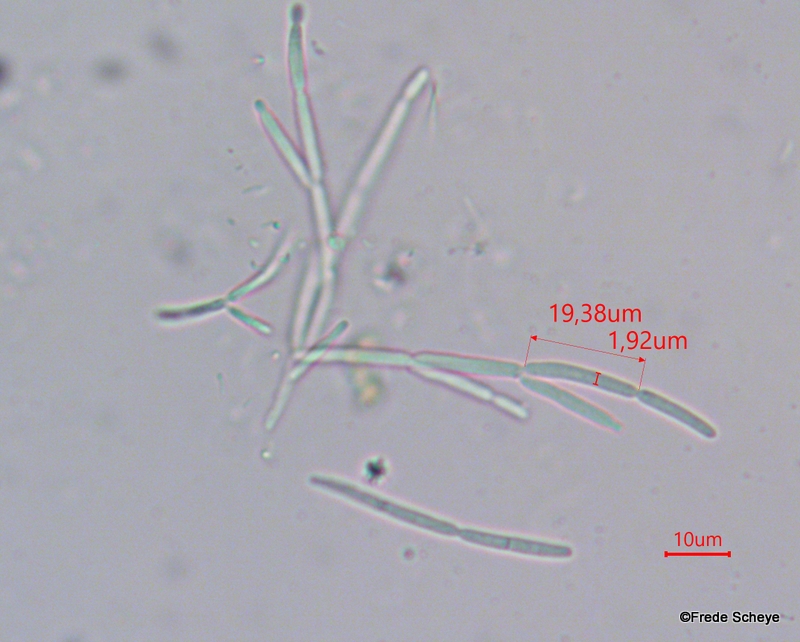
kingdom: Fungi
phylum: Ascomycota
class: Leotiomycetes
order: Helotiales
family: Calloriaceae
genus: Calloria
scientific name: Calloria urticae
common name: nælde-orangeskive
